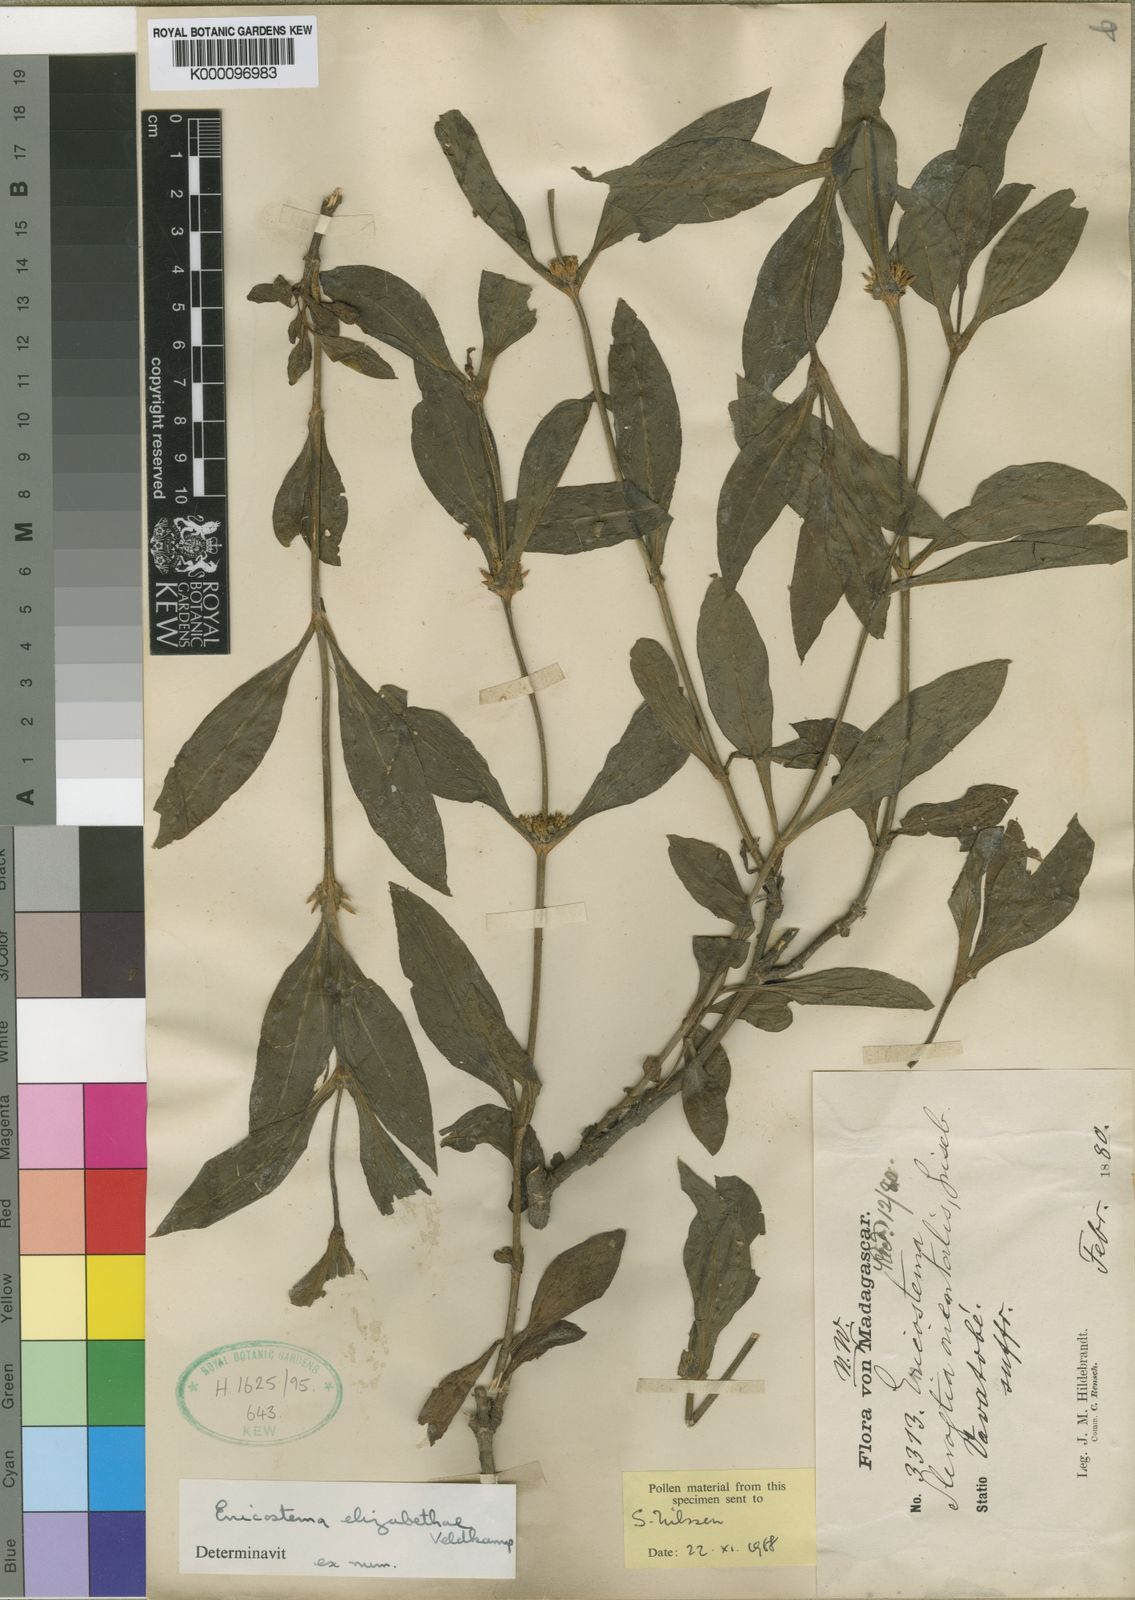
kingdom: Plantae
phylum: Tracheophyta
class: Magnoliopsida
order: Gentianales
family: Gentianaceae
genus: Enicostema
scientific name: Enicostema elizabethiae
